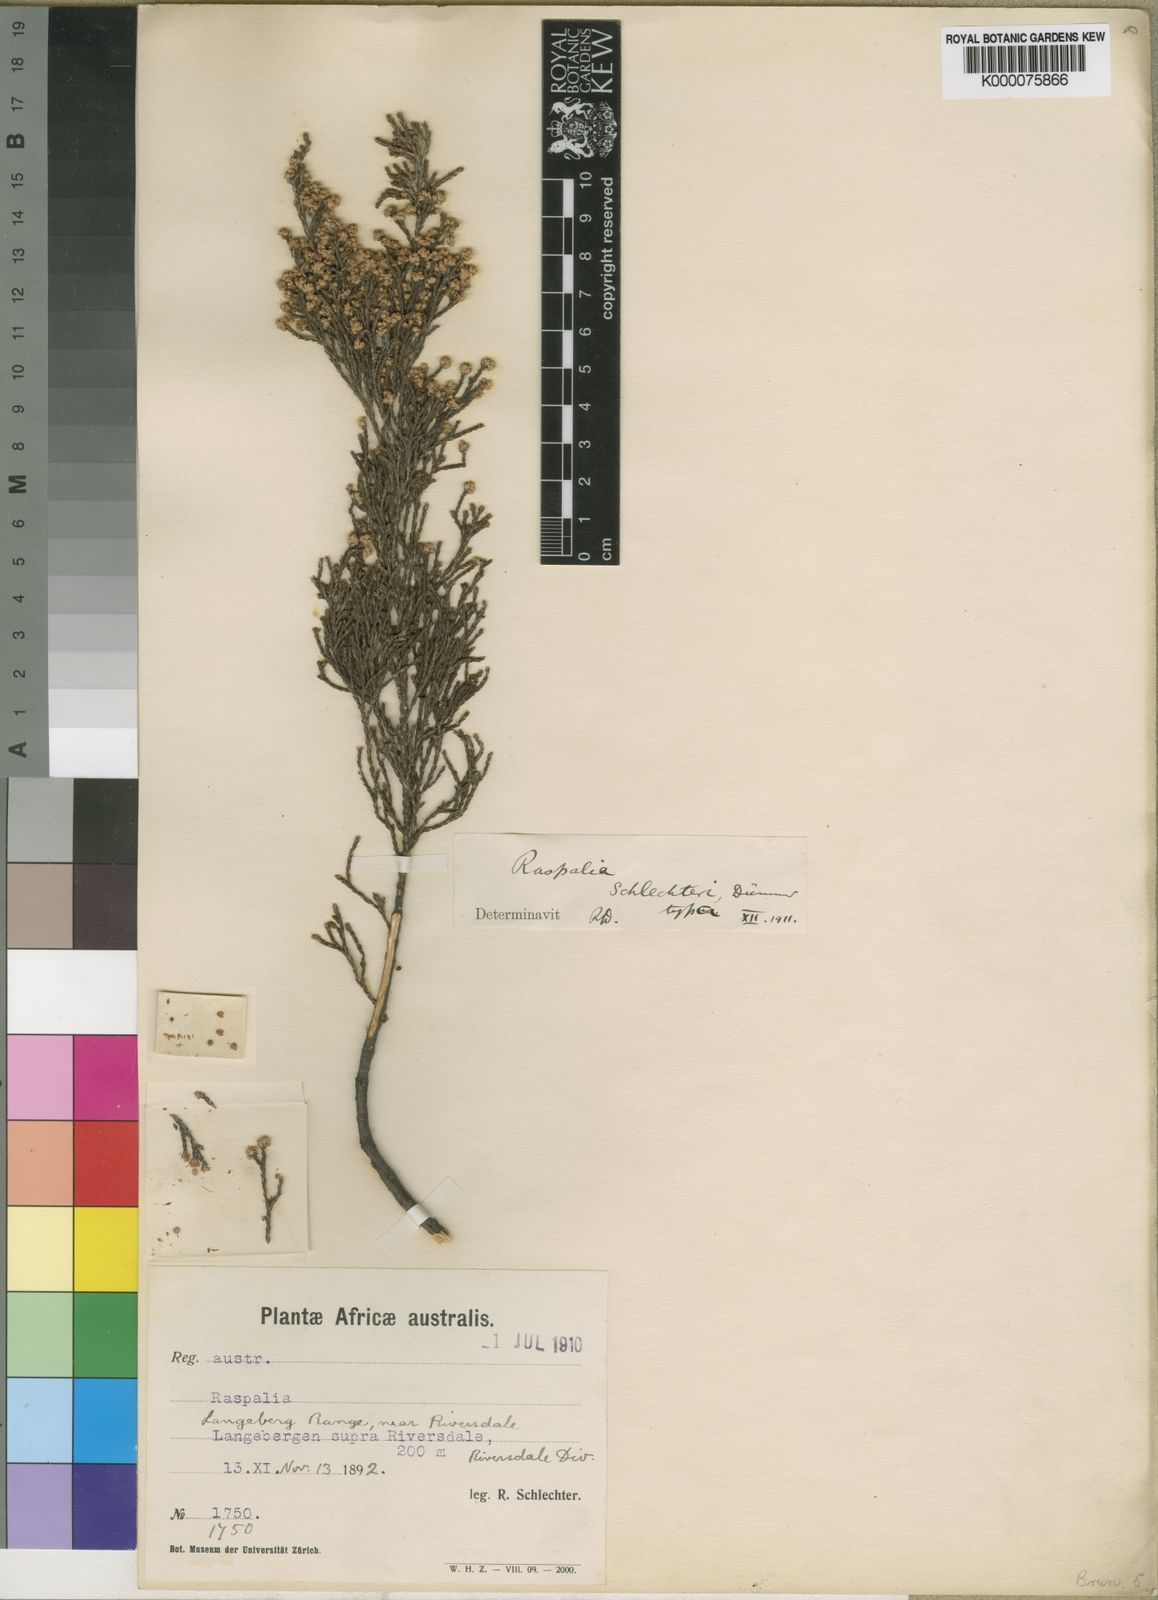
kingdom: Plantae
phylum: Tracheophyta
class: Magnoliopsida
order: Bruniales
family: Bruniaceae
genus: Brunia
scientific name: Brunia
